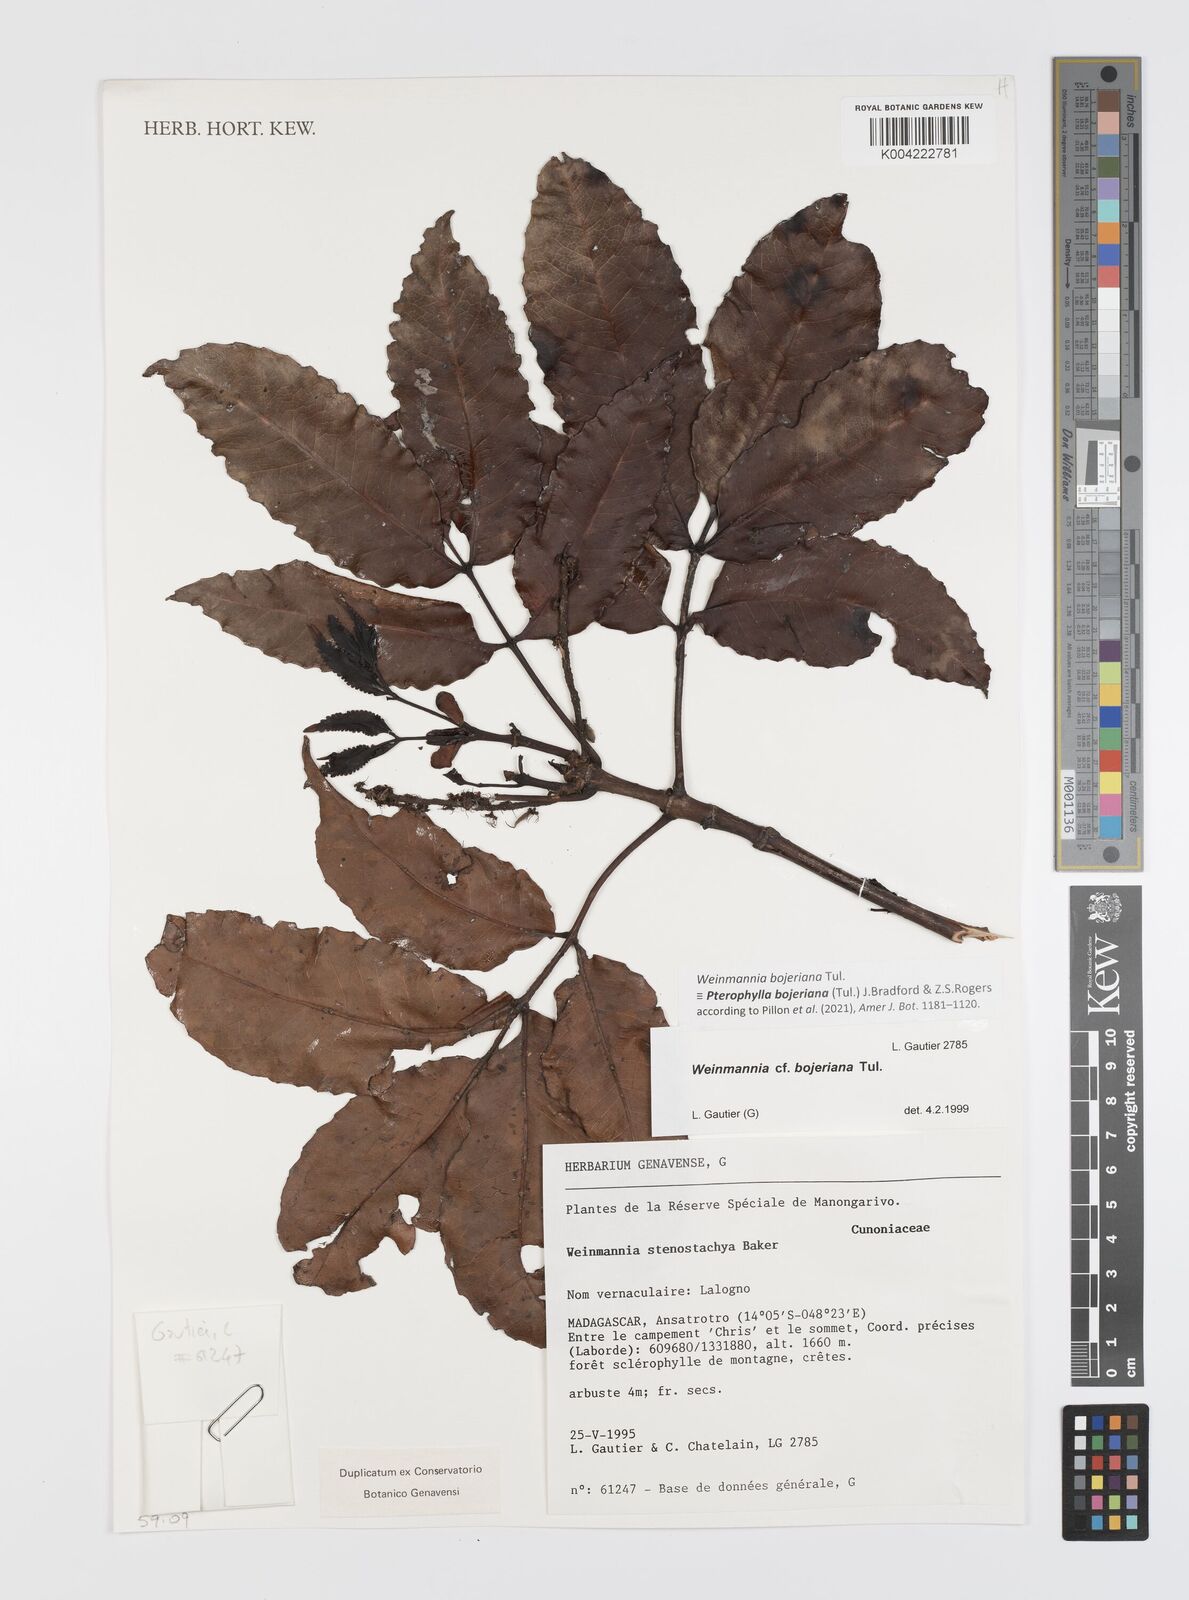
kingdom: Plantae
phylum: Tracheophyta
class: Magnoliopsida
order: Oxalidales
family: Cunoniaceae
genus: Pterophylla
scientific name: Pterophylla
